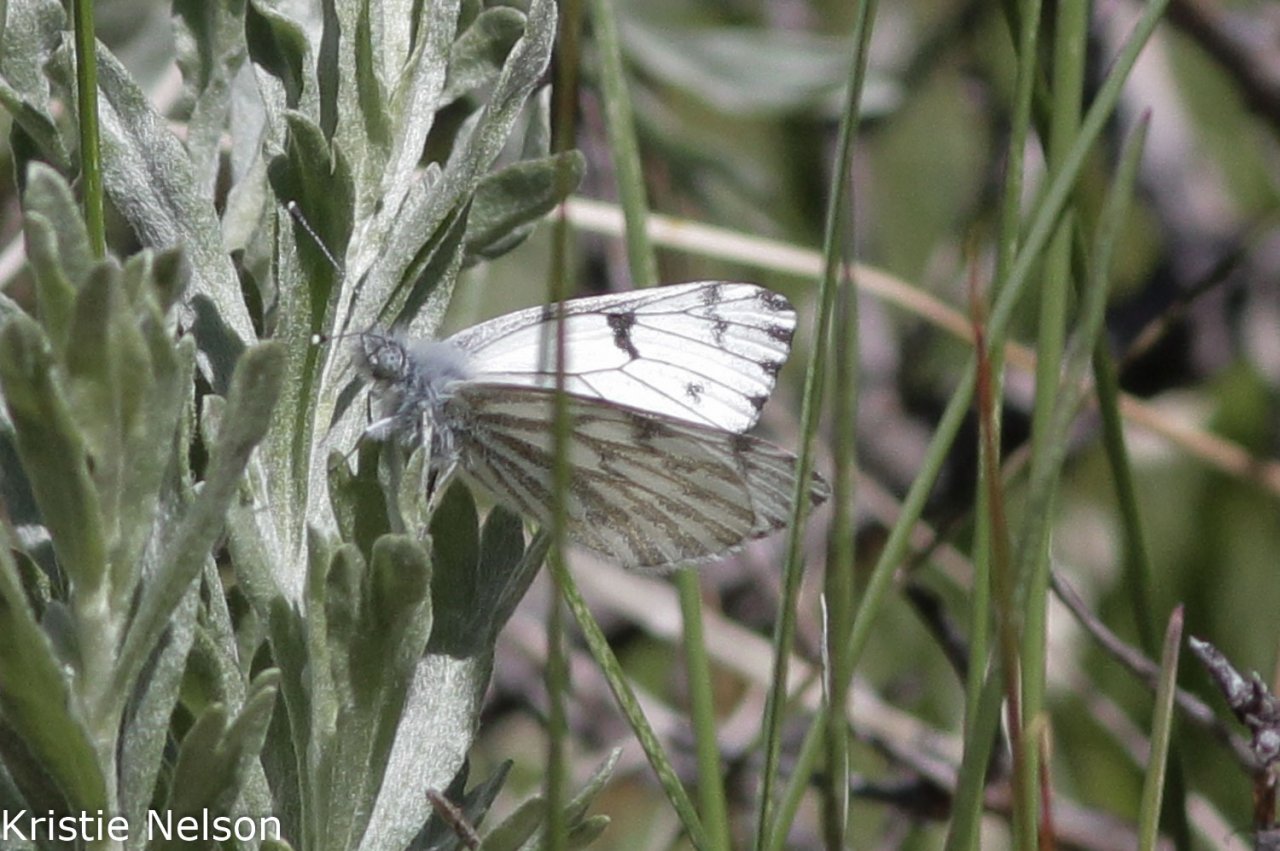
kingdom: Animalia
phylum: Arthropoda
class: Insecta
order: Lepidoptera
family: Pieridae
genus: Pontia
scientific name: Pontia sisymbrii
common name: Spring White
